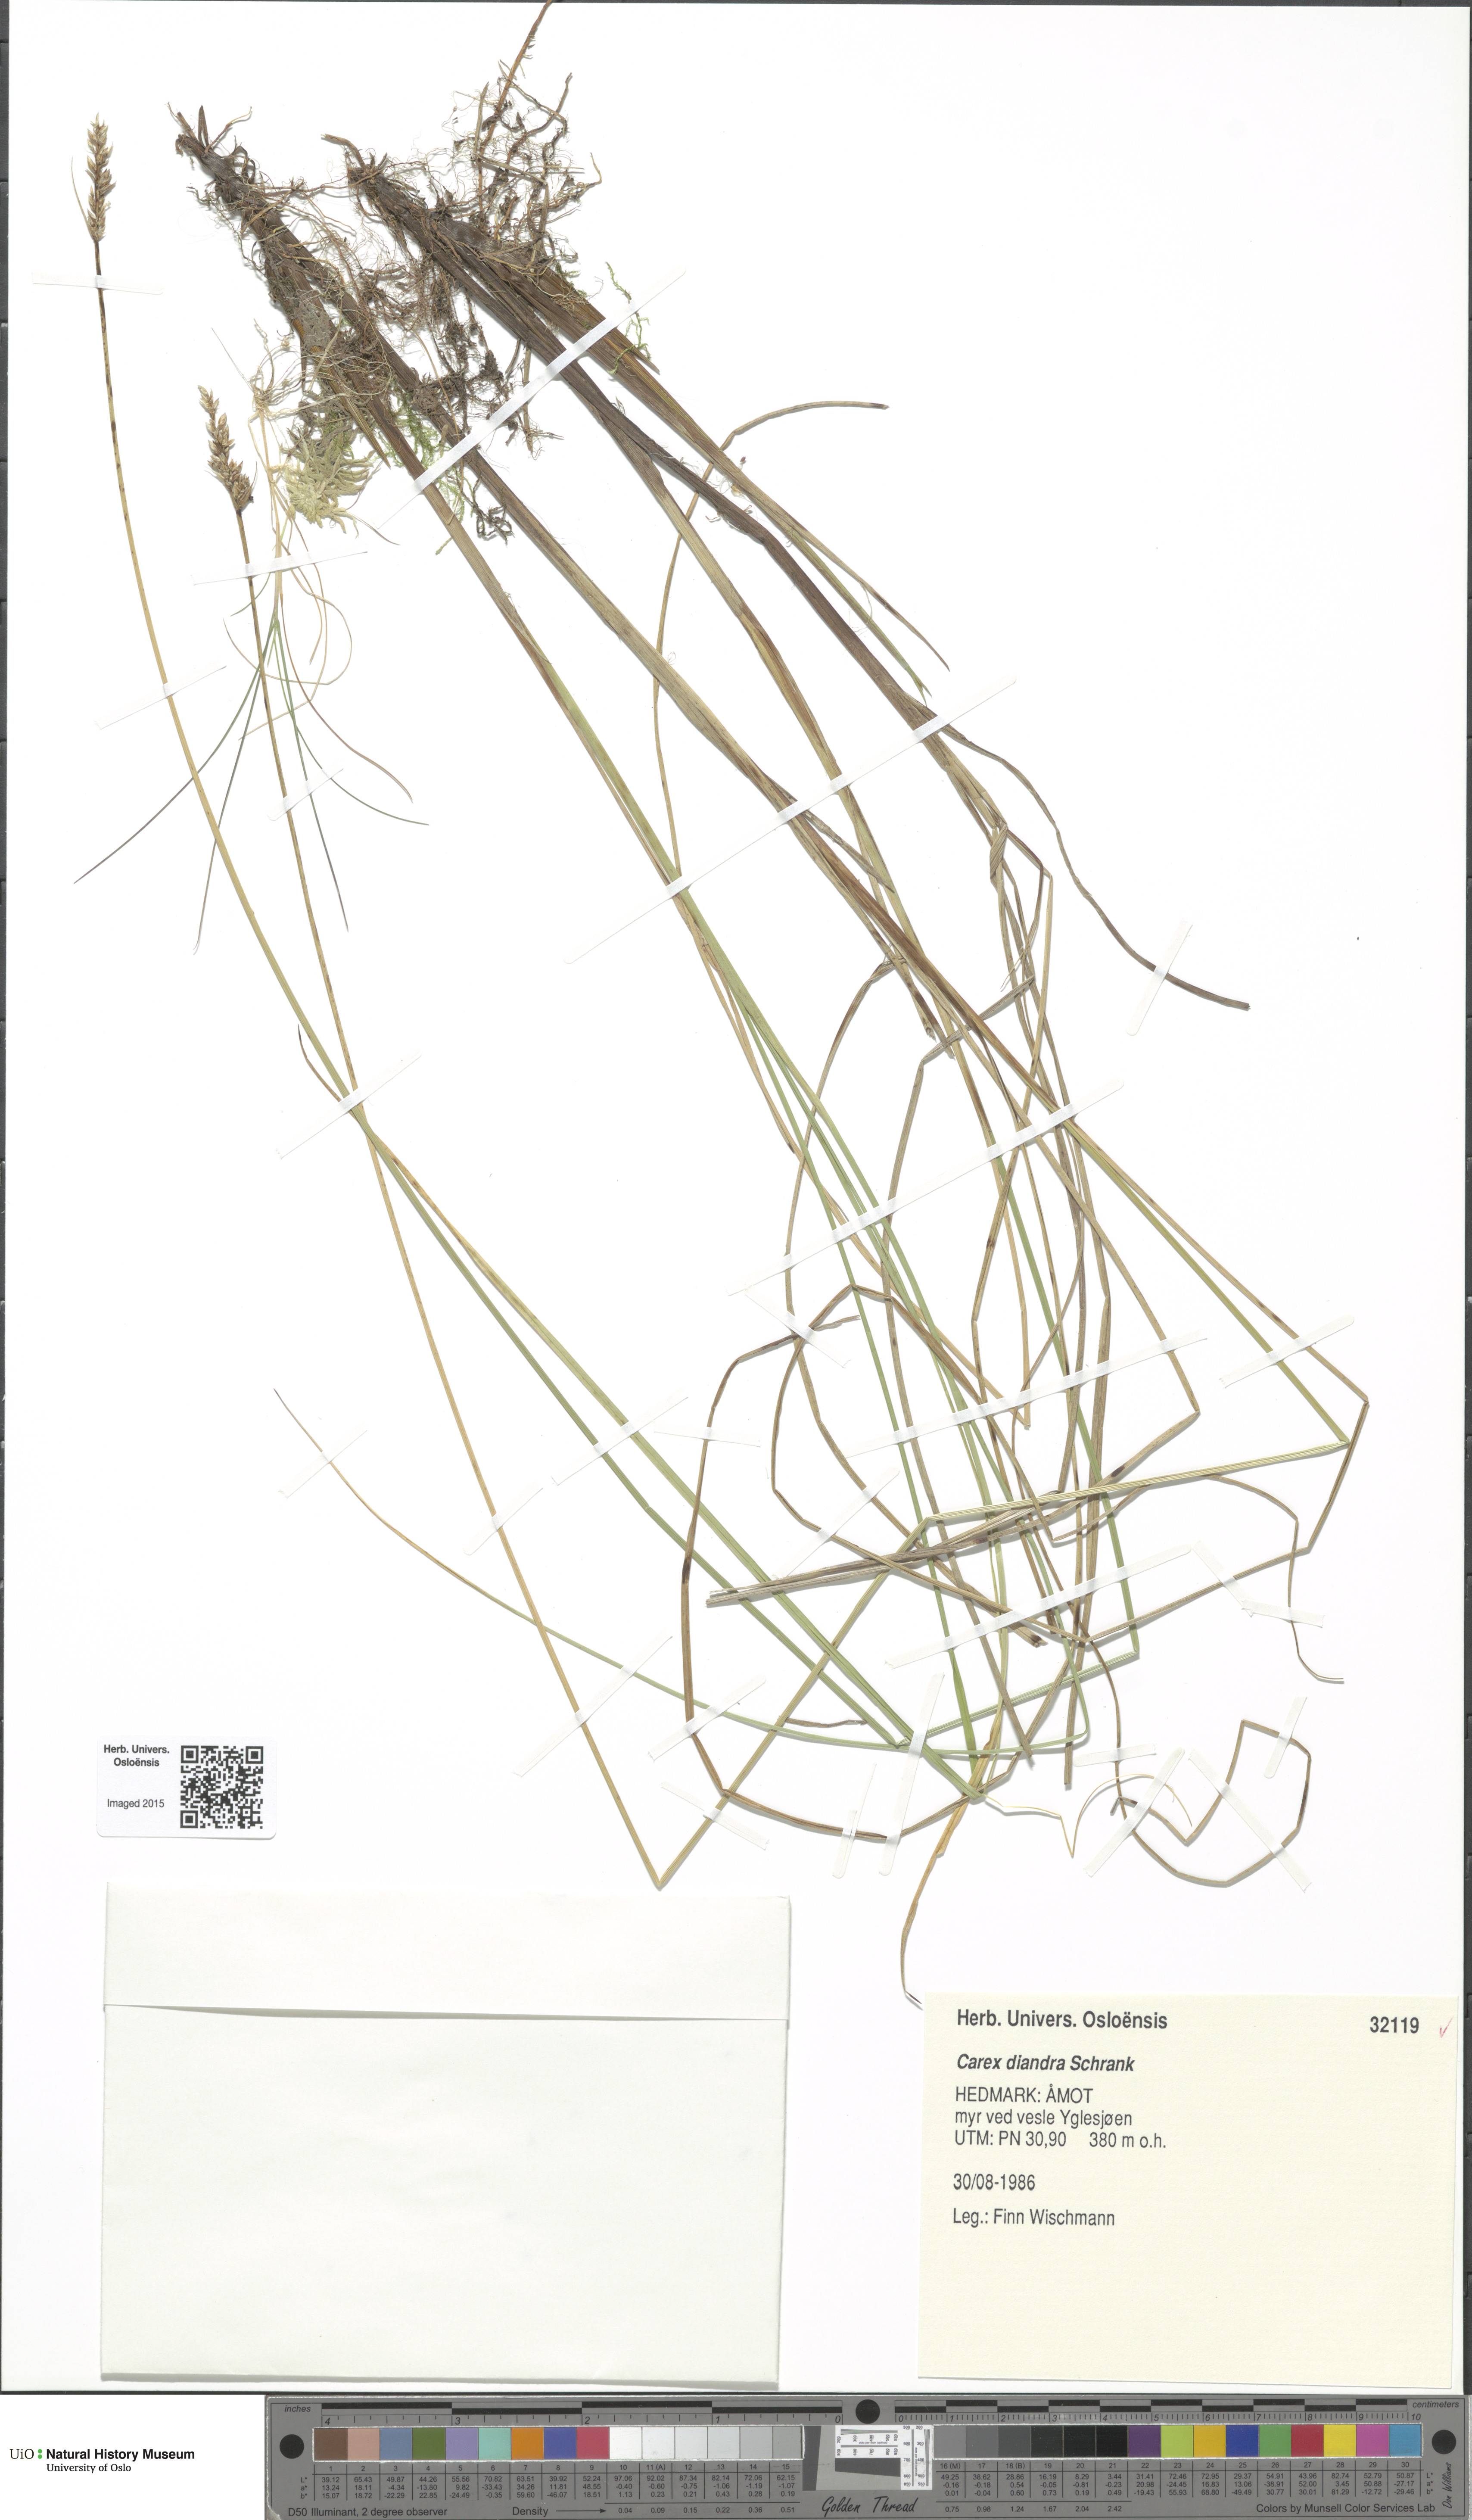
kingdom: Plantae
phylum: Tracheophyta
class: Liliopsida
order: Poales
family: Cyperaceae
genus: Carex
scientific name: Carex diandra
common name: Lesser tussock-sedge
